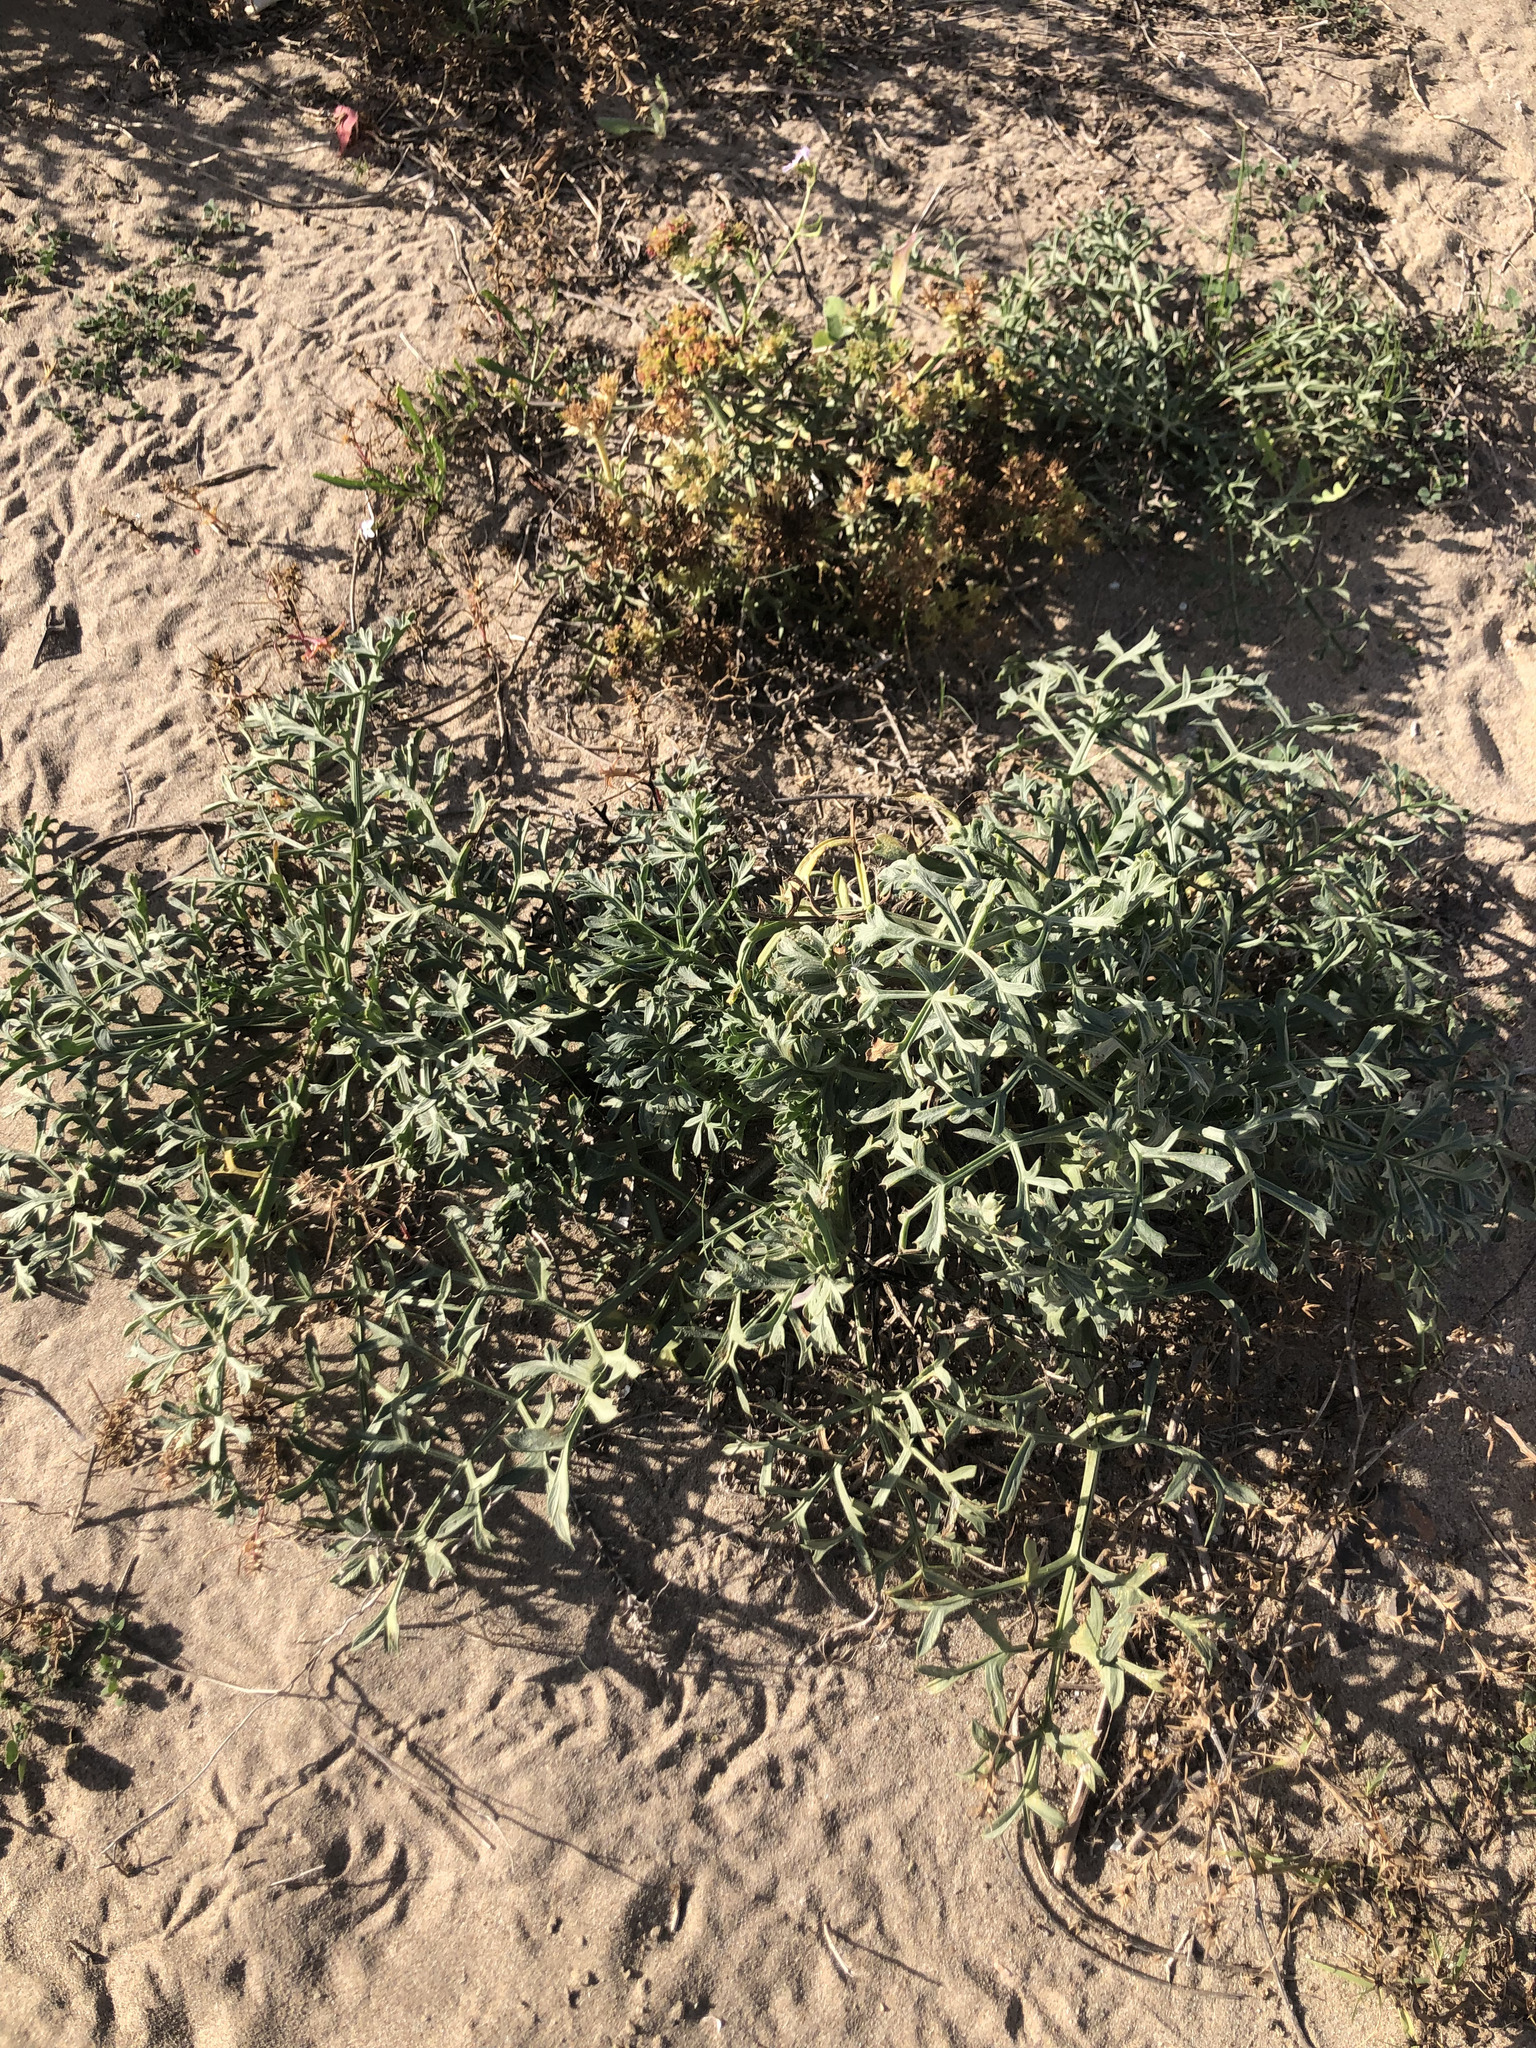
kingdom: Plantae
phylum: Tracheophyta
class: Magnoliopsida
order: Apiales
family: Apiaceae
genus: Echinophora
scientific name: Echinophora spinosa
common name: Prickly samphire
